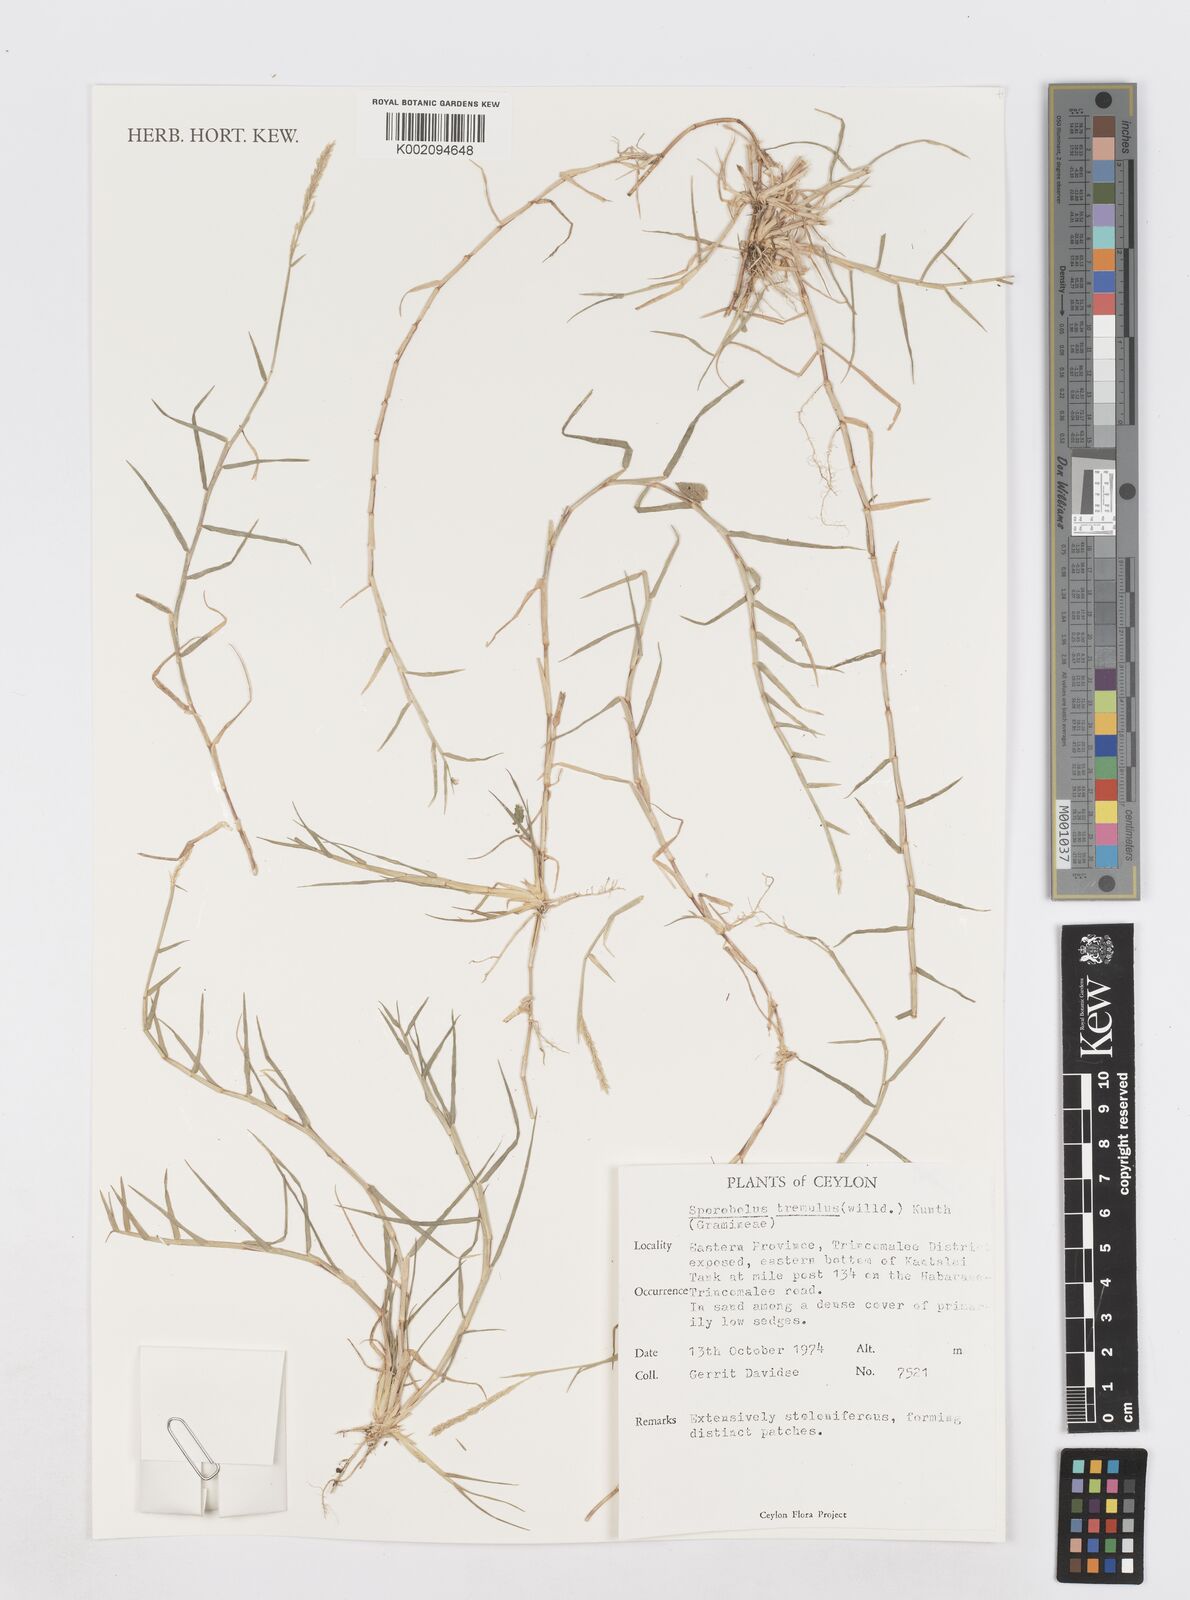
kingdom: Plantae
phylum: Tracheophyta
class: Liliopsida
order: Poales
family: Poaceae
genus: Sporobolus
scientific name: Sporobolus virginicus
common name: Beach dropseed
